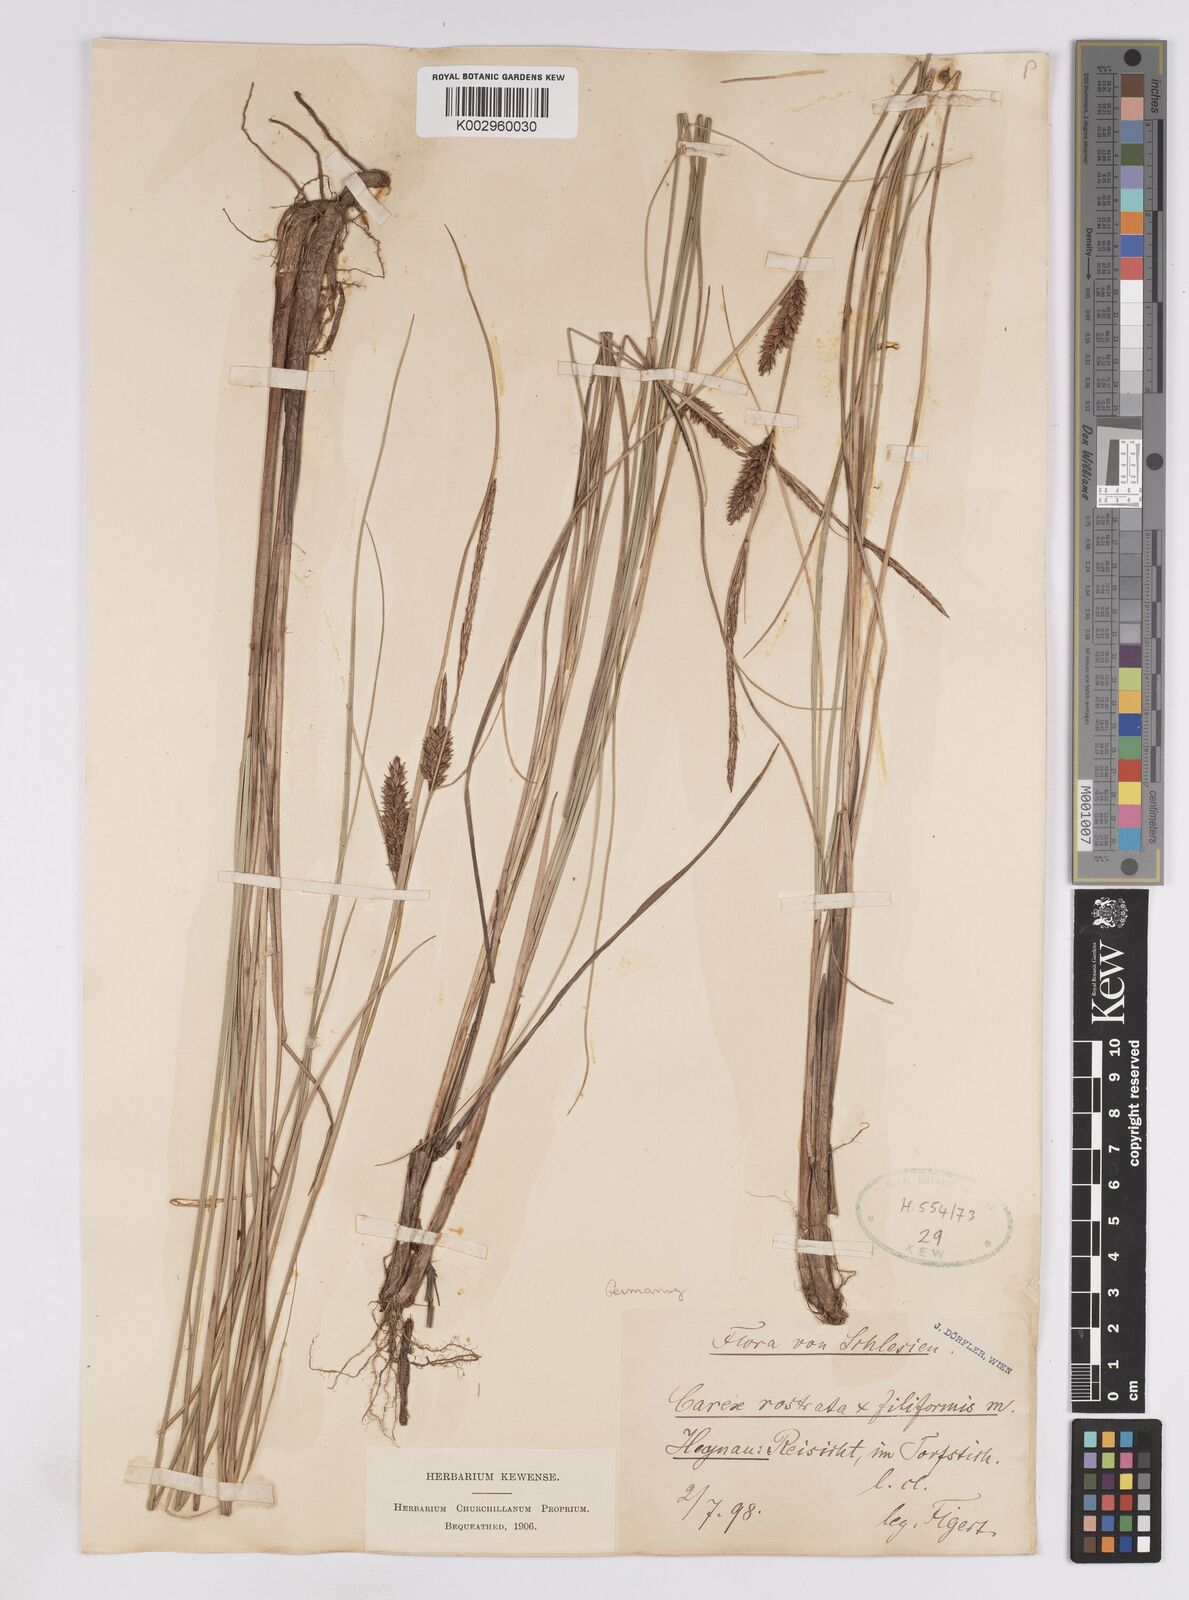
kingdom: Plantae
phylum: Tracheophyta
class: Liliopsida
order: Poales
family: Cyperaceae
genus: Carex
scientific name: Carex
